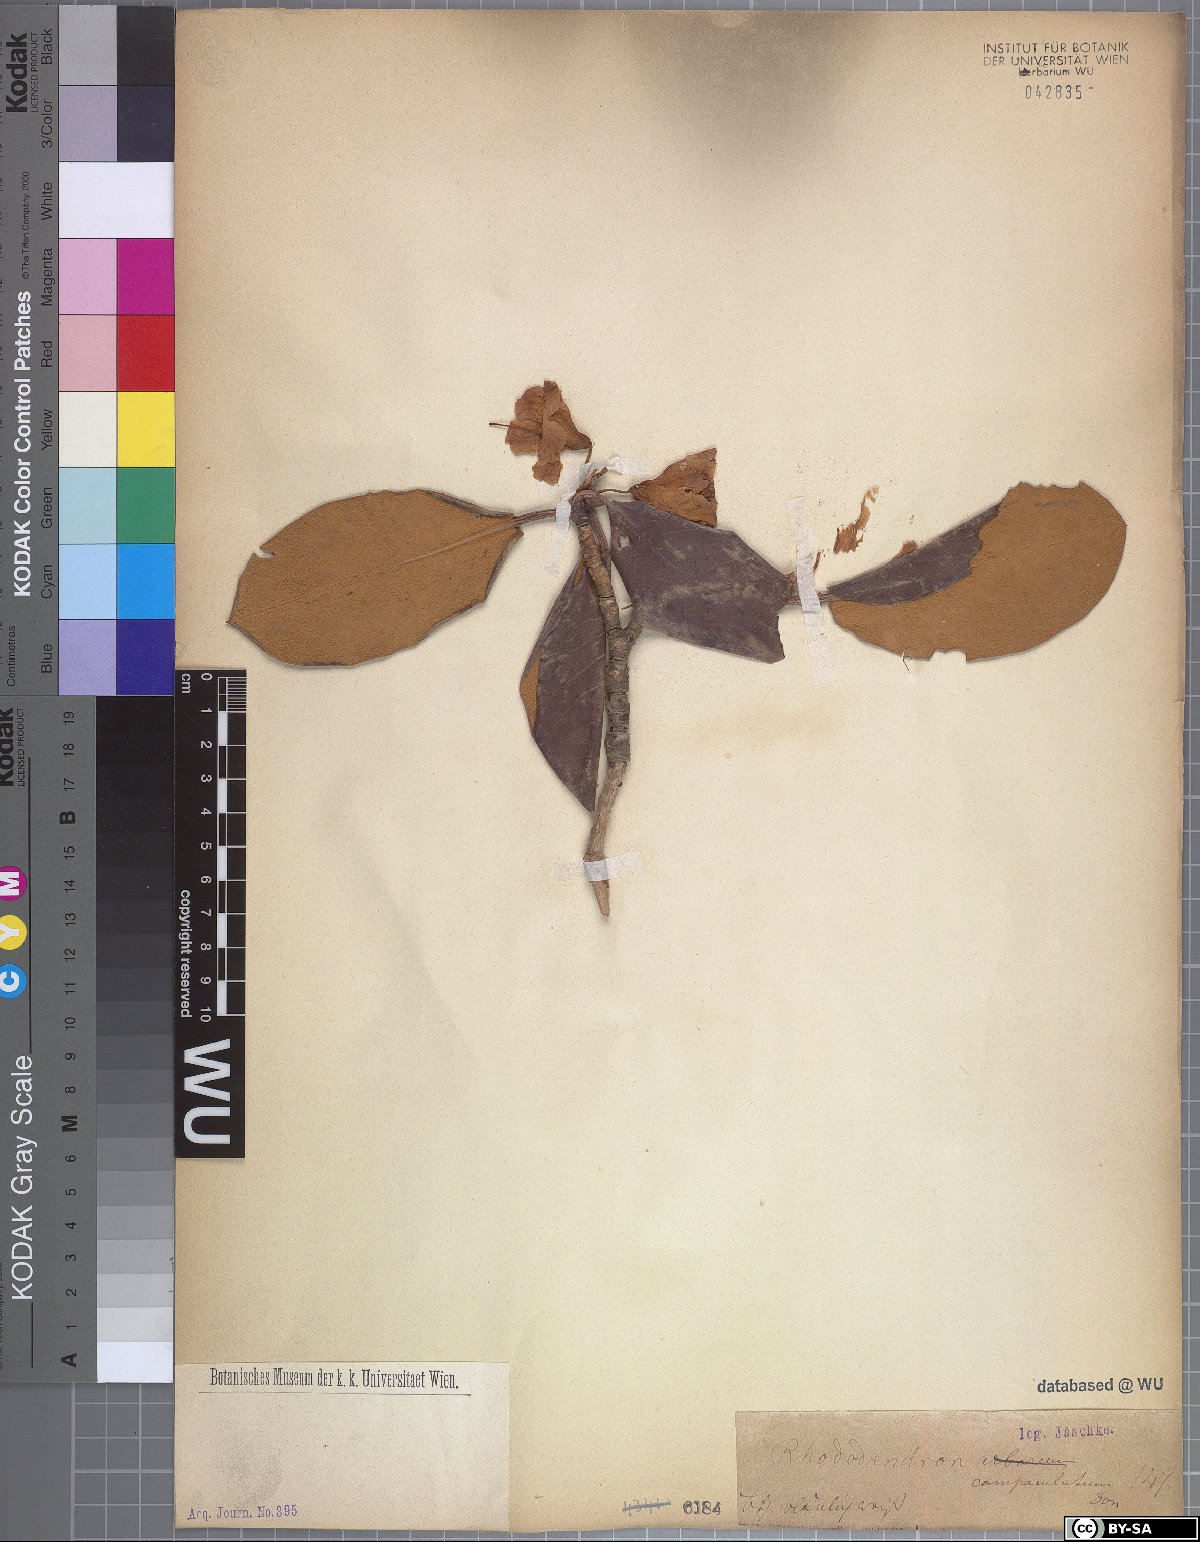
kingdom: Plantae
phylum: Tracheophyta
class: Magnoliopsida
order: Ericales
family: Ericaceae
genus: Rhododendron
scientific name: Rhododendron campanulatum
